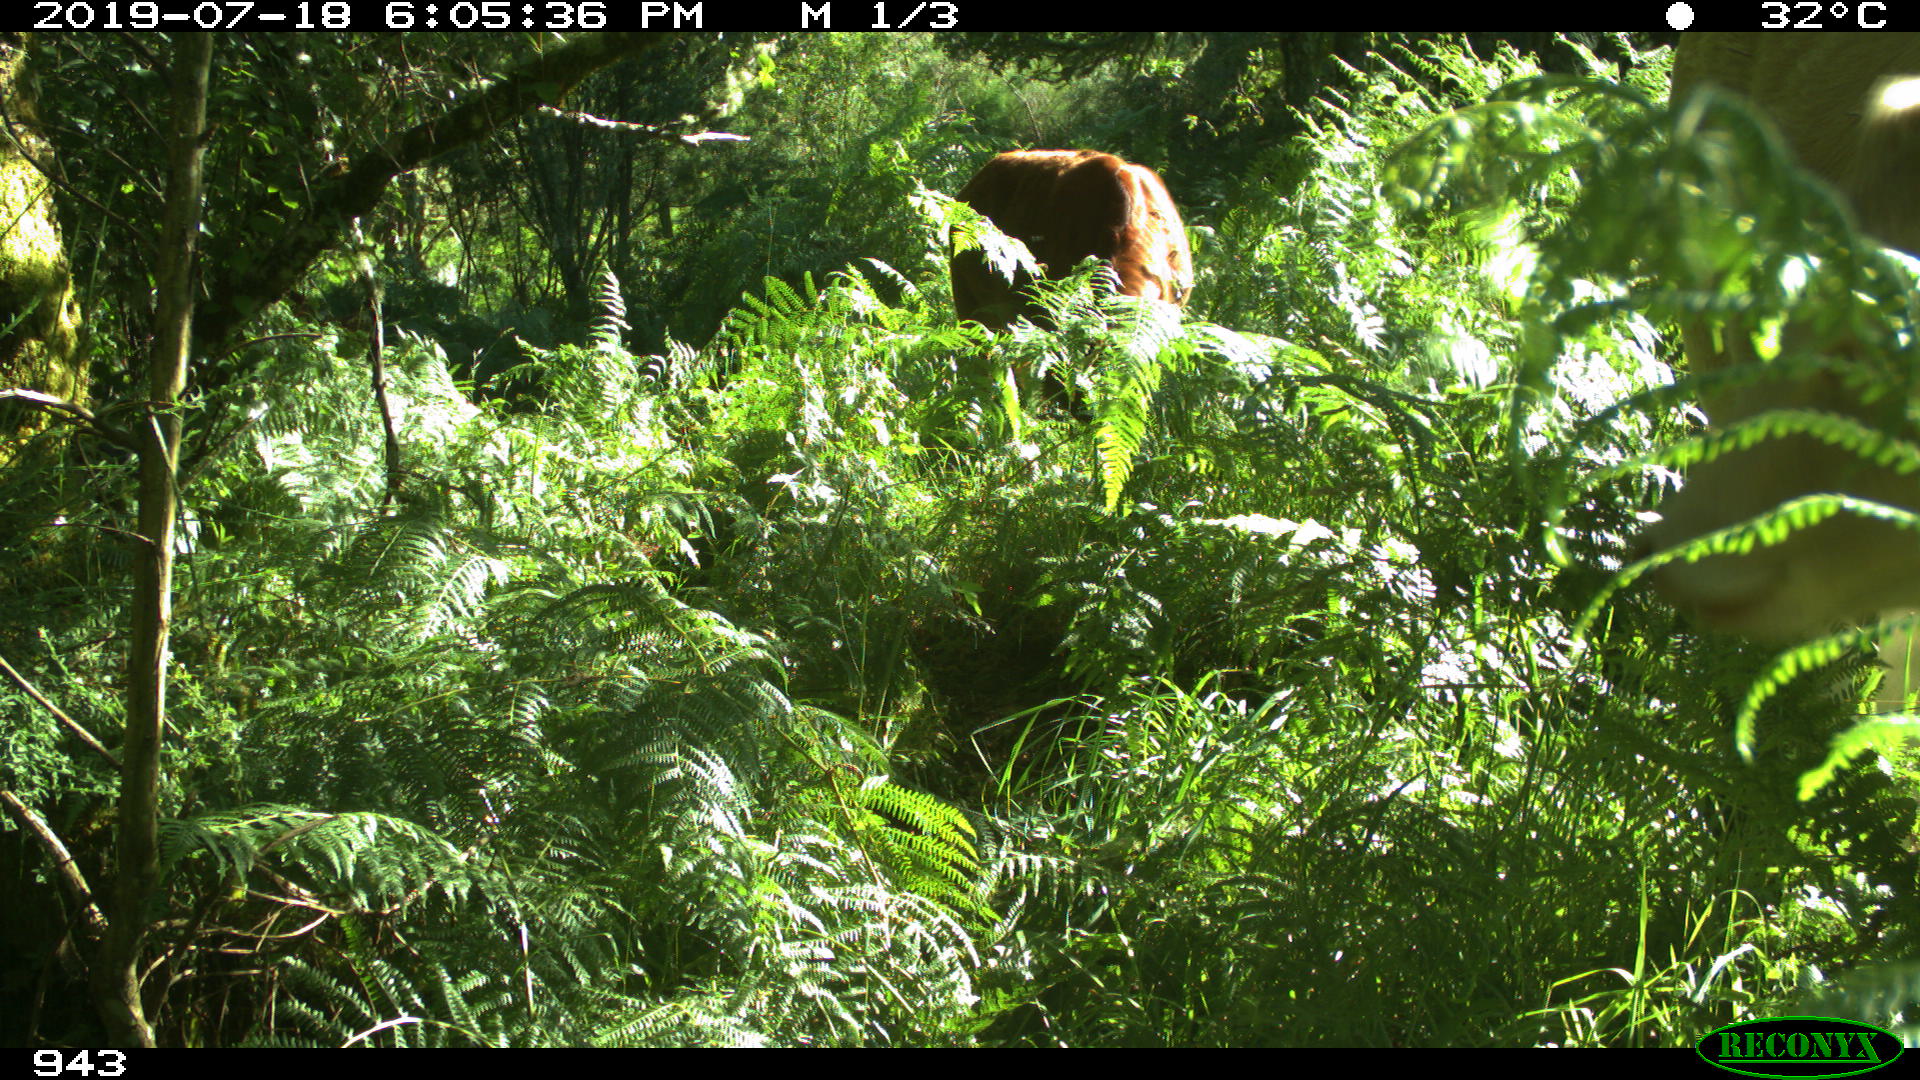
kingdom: Animalia
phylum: Chordata
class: Mammalia
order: Artiodactyla
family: Bovidae
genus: Bos
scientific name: Bos taurus
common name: Domesticated cattle
